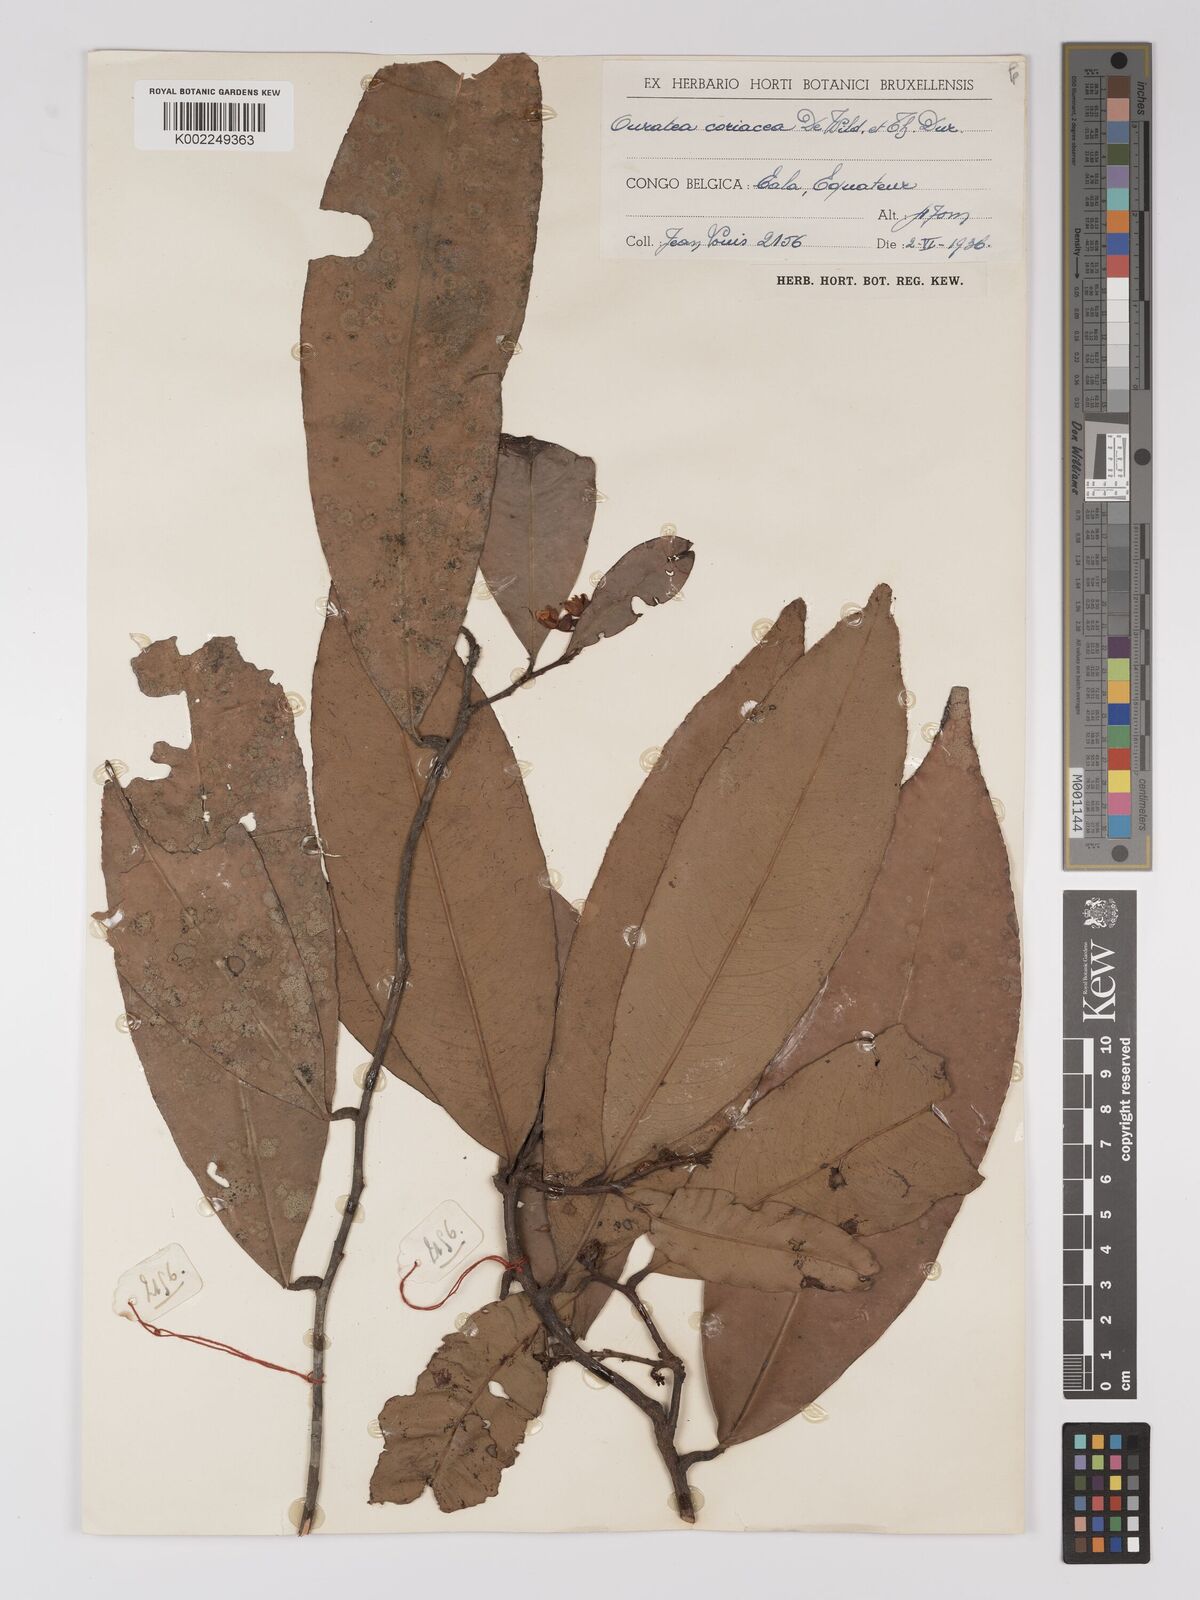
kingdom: Plantae
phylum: Tracheophyta
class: Magnoliopsida
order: Malpighiales
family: Ochnaceae
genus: Gomphia
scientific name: Gomphia densiflora
